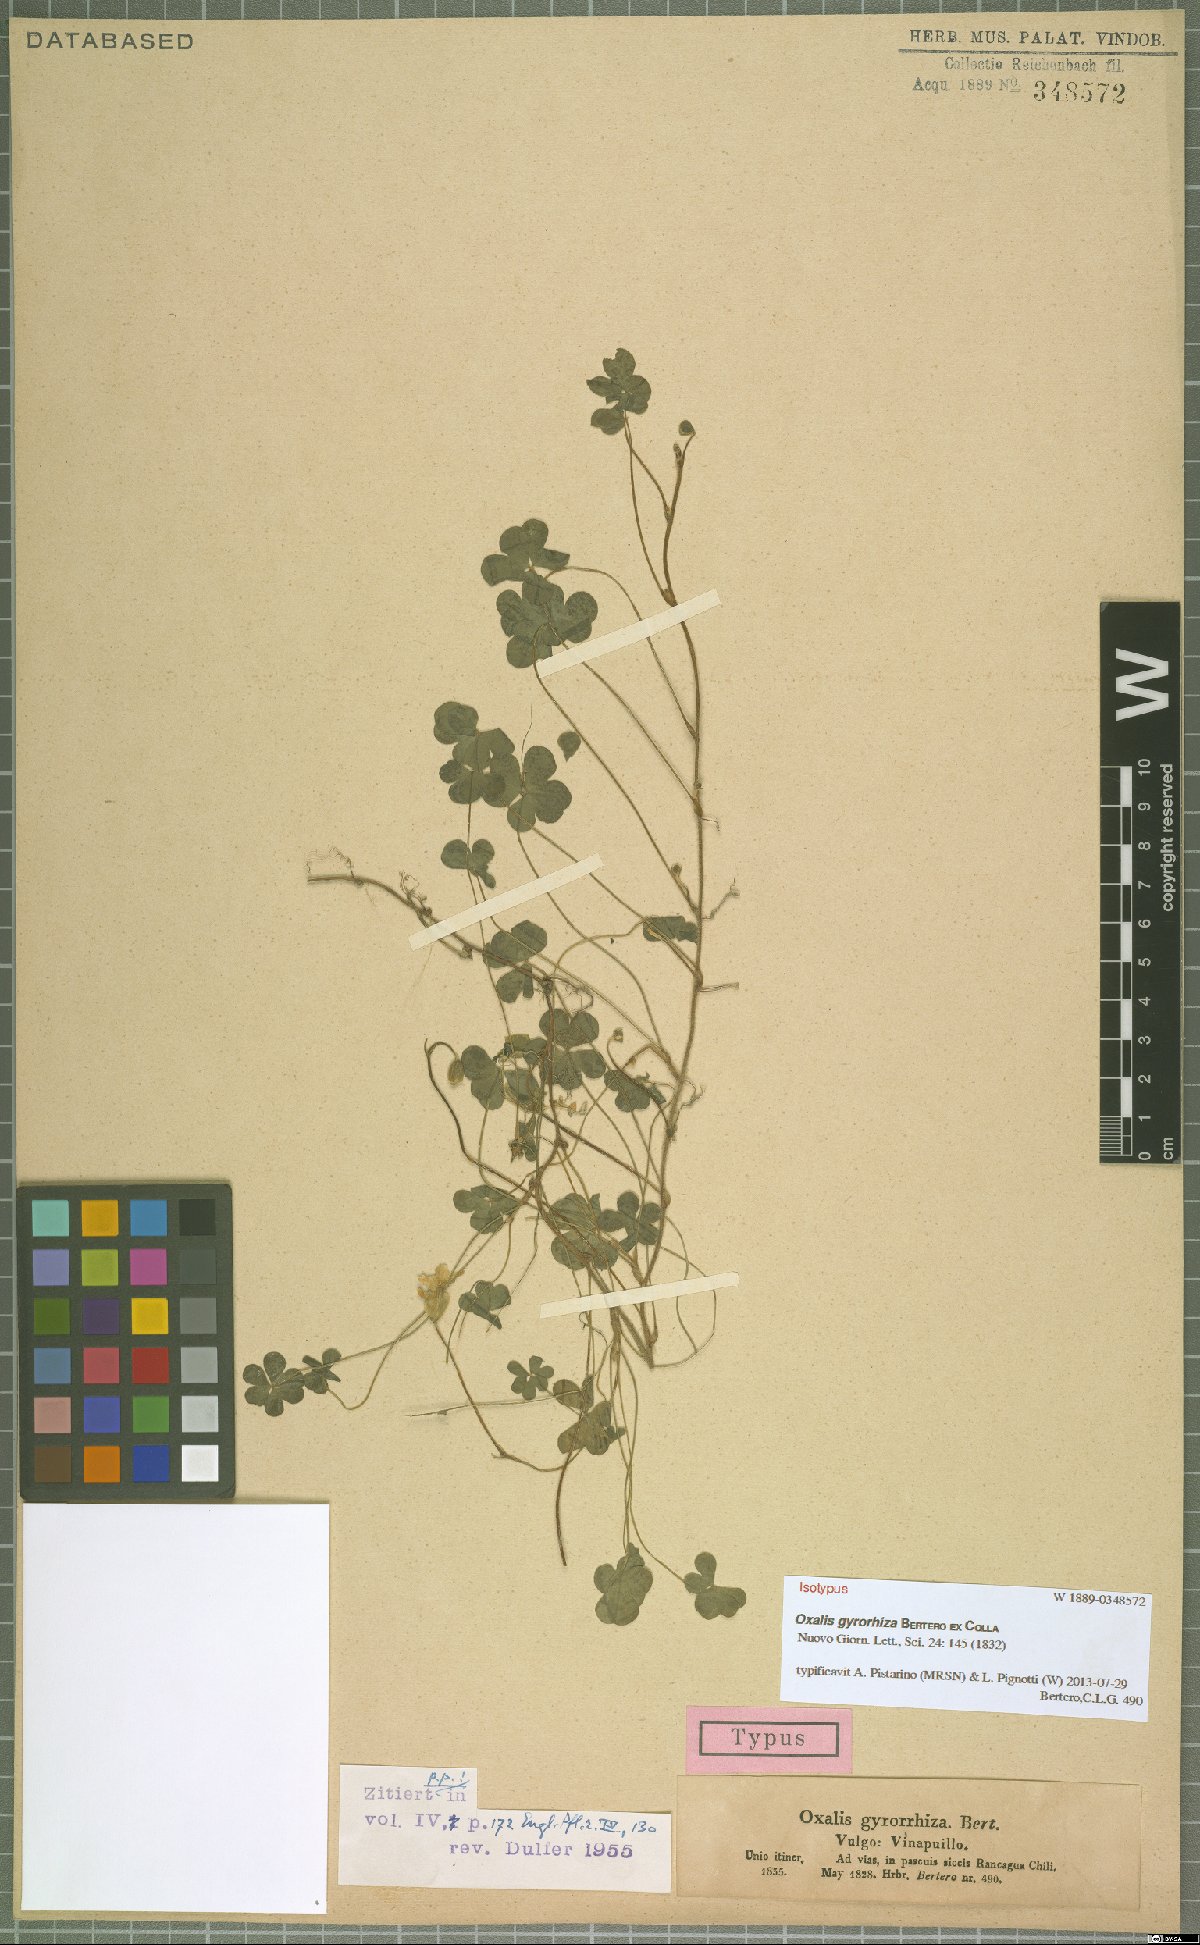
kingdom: Plantae
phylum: Tracheophyta
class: Magnoliopsida
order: Oxalidales
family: Oxalidaceae
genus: Oxalis
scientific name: Oxalis gyrorhiza
